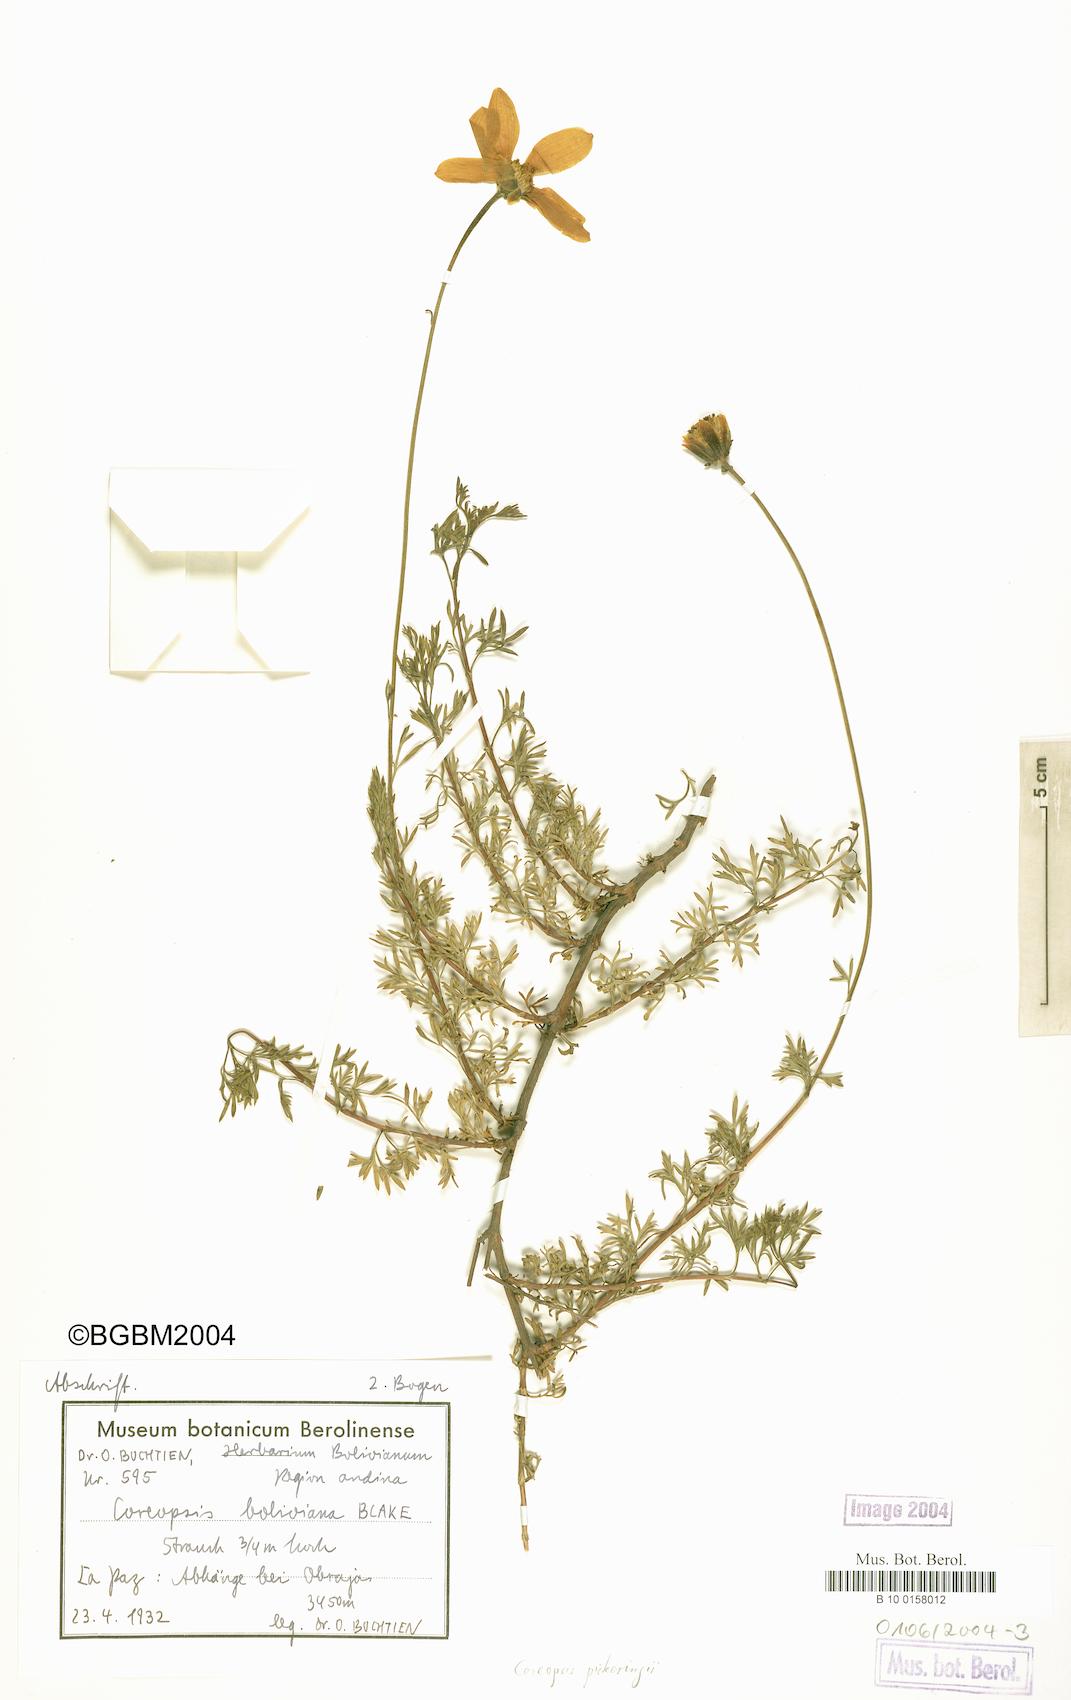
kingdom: Plantae
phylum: Tracheophyta
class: Magnoliopsida
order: Asterales
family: Asteraceae
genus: Coreopsis
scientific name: Coreopsis pickeringii
